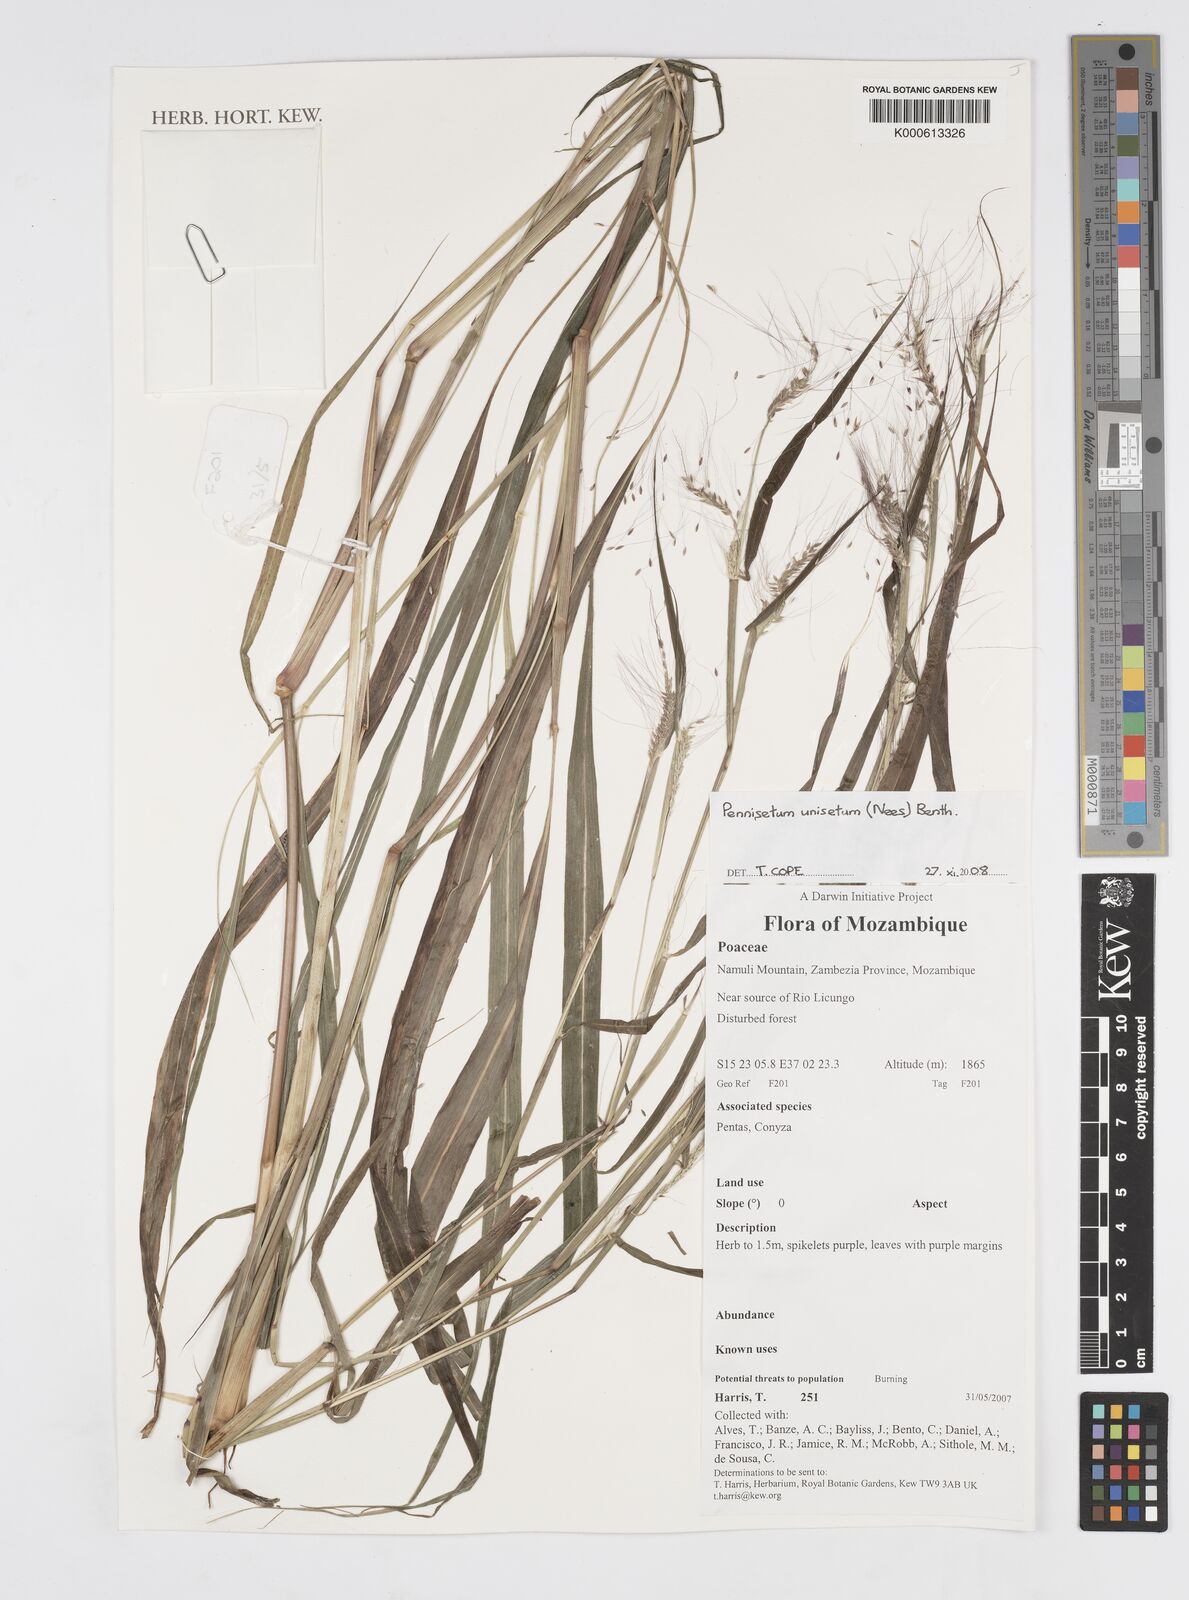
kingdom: Plantae
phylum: Tracheophyta
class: Liliopsida
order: Poales
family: Poaceae
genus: Cenchrus
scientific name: Cenchrus unisetus
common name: Natal grass
